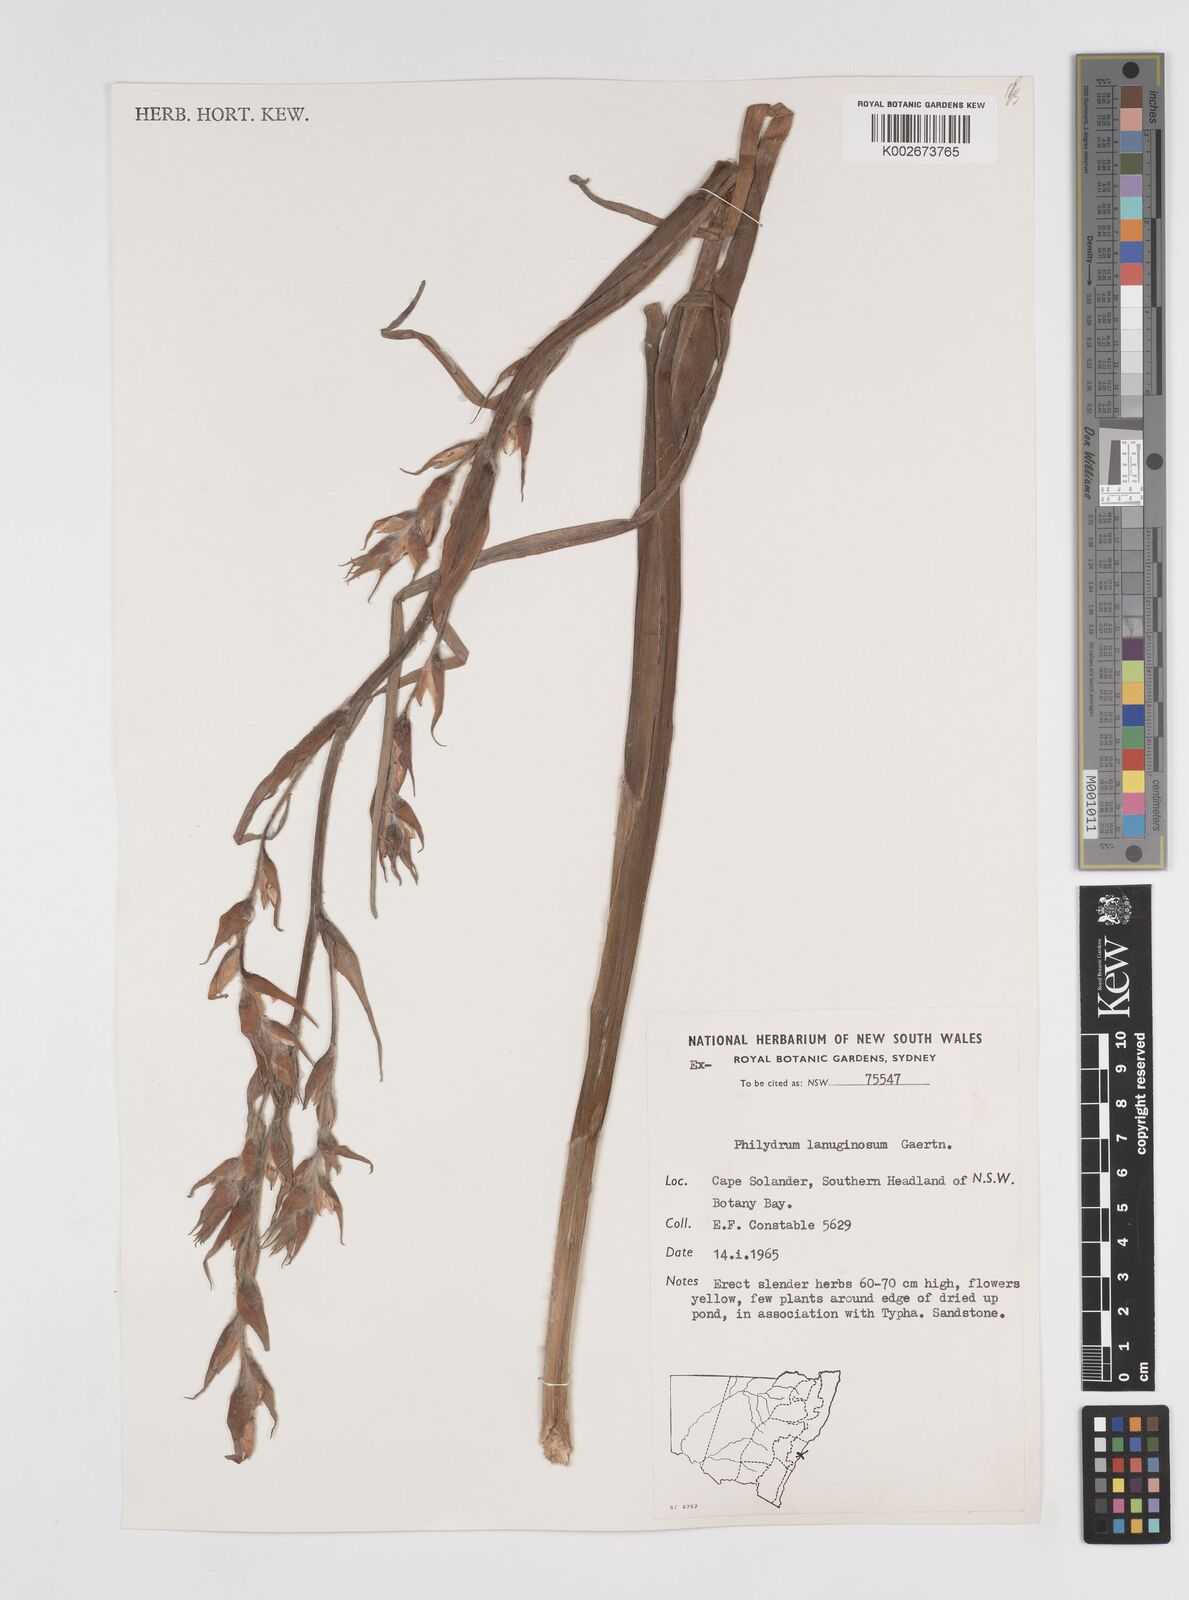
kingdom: Plantae
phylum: Tracheophyta
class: Liliopsida
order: Commelinales
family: Philydraceae
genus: Philydrum
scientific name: Philydrum lanuginosum
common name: Woolly frog's mouth
